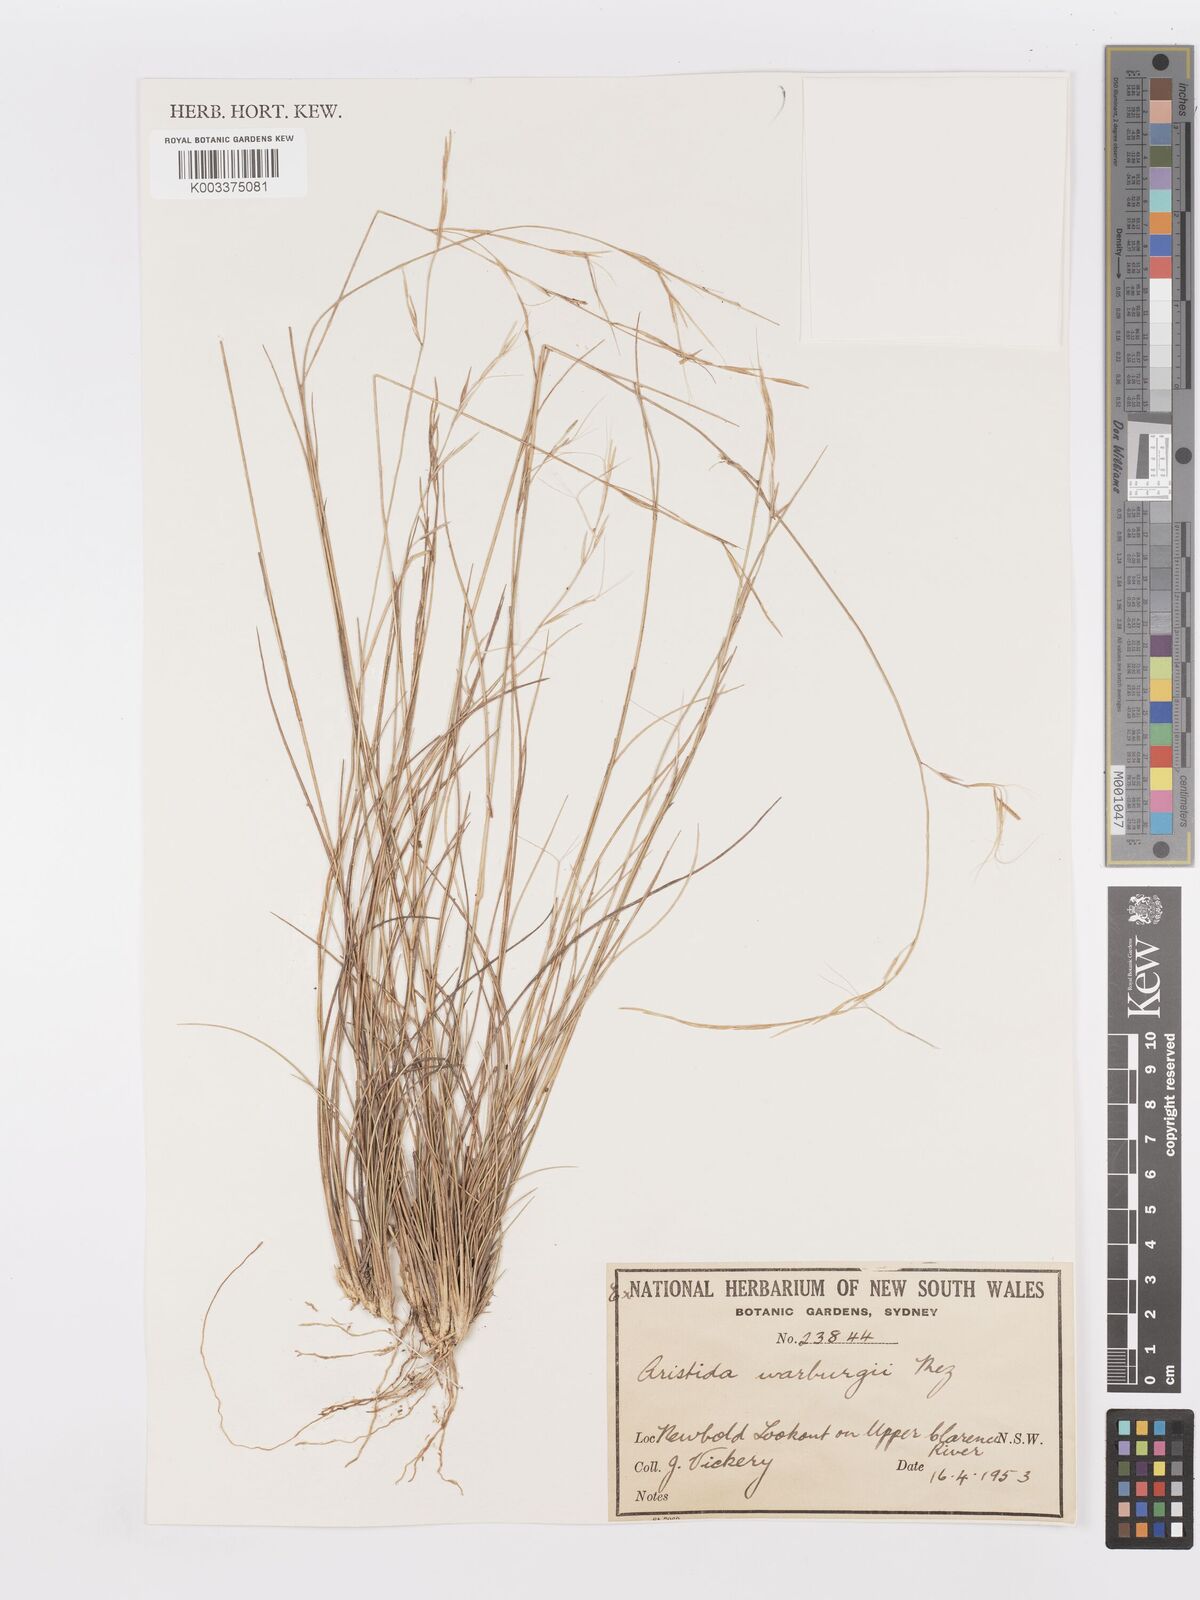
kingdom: Plantae
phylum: Tracheophyta
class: Liliopsida
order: Poales
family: Poaceae
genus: Aristida
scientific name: Aristida warburgii
